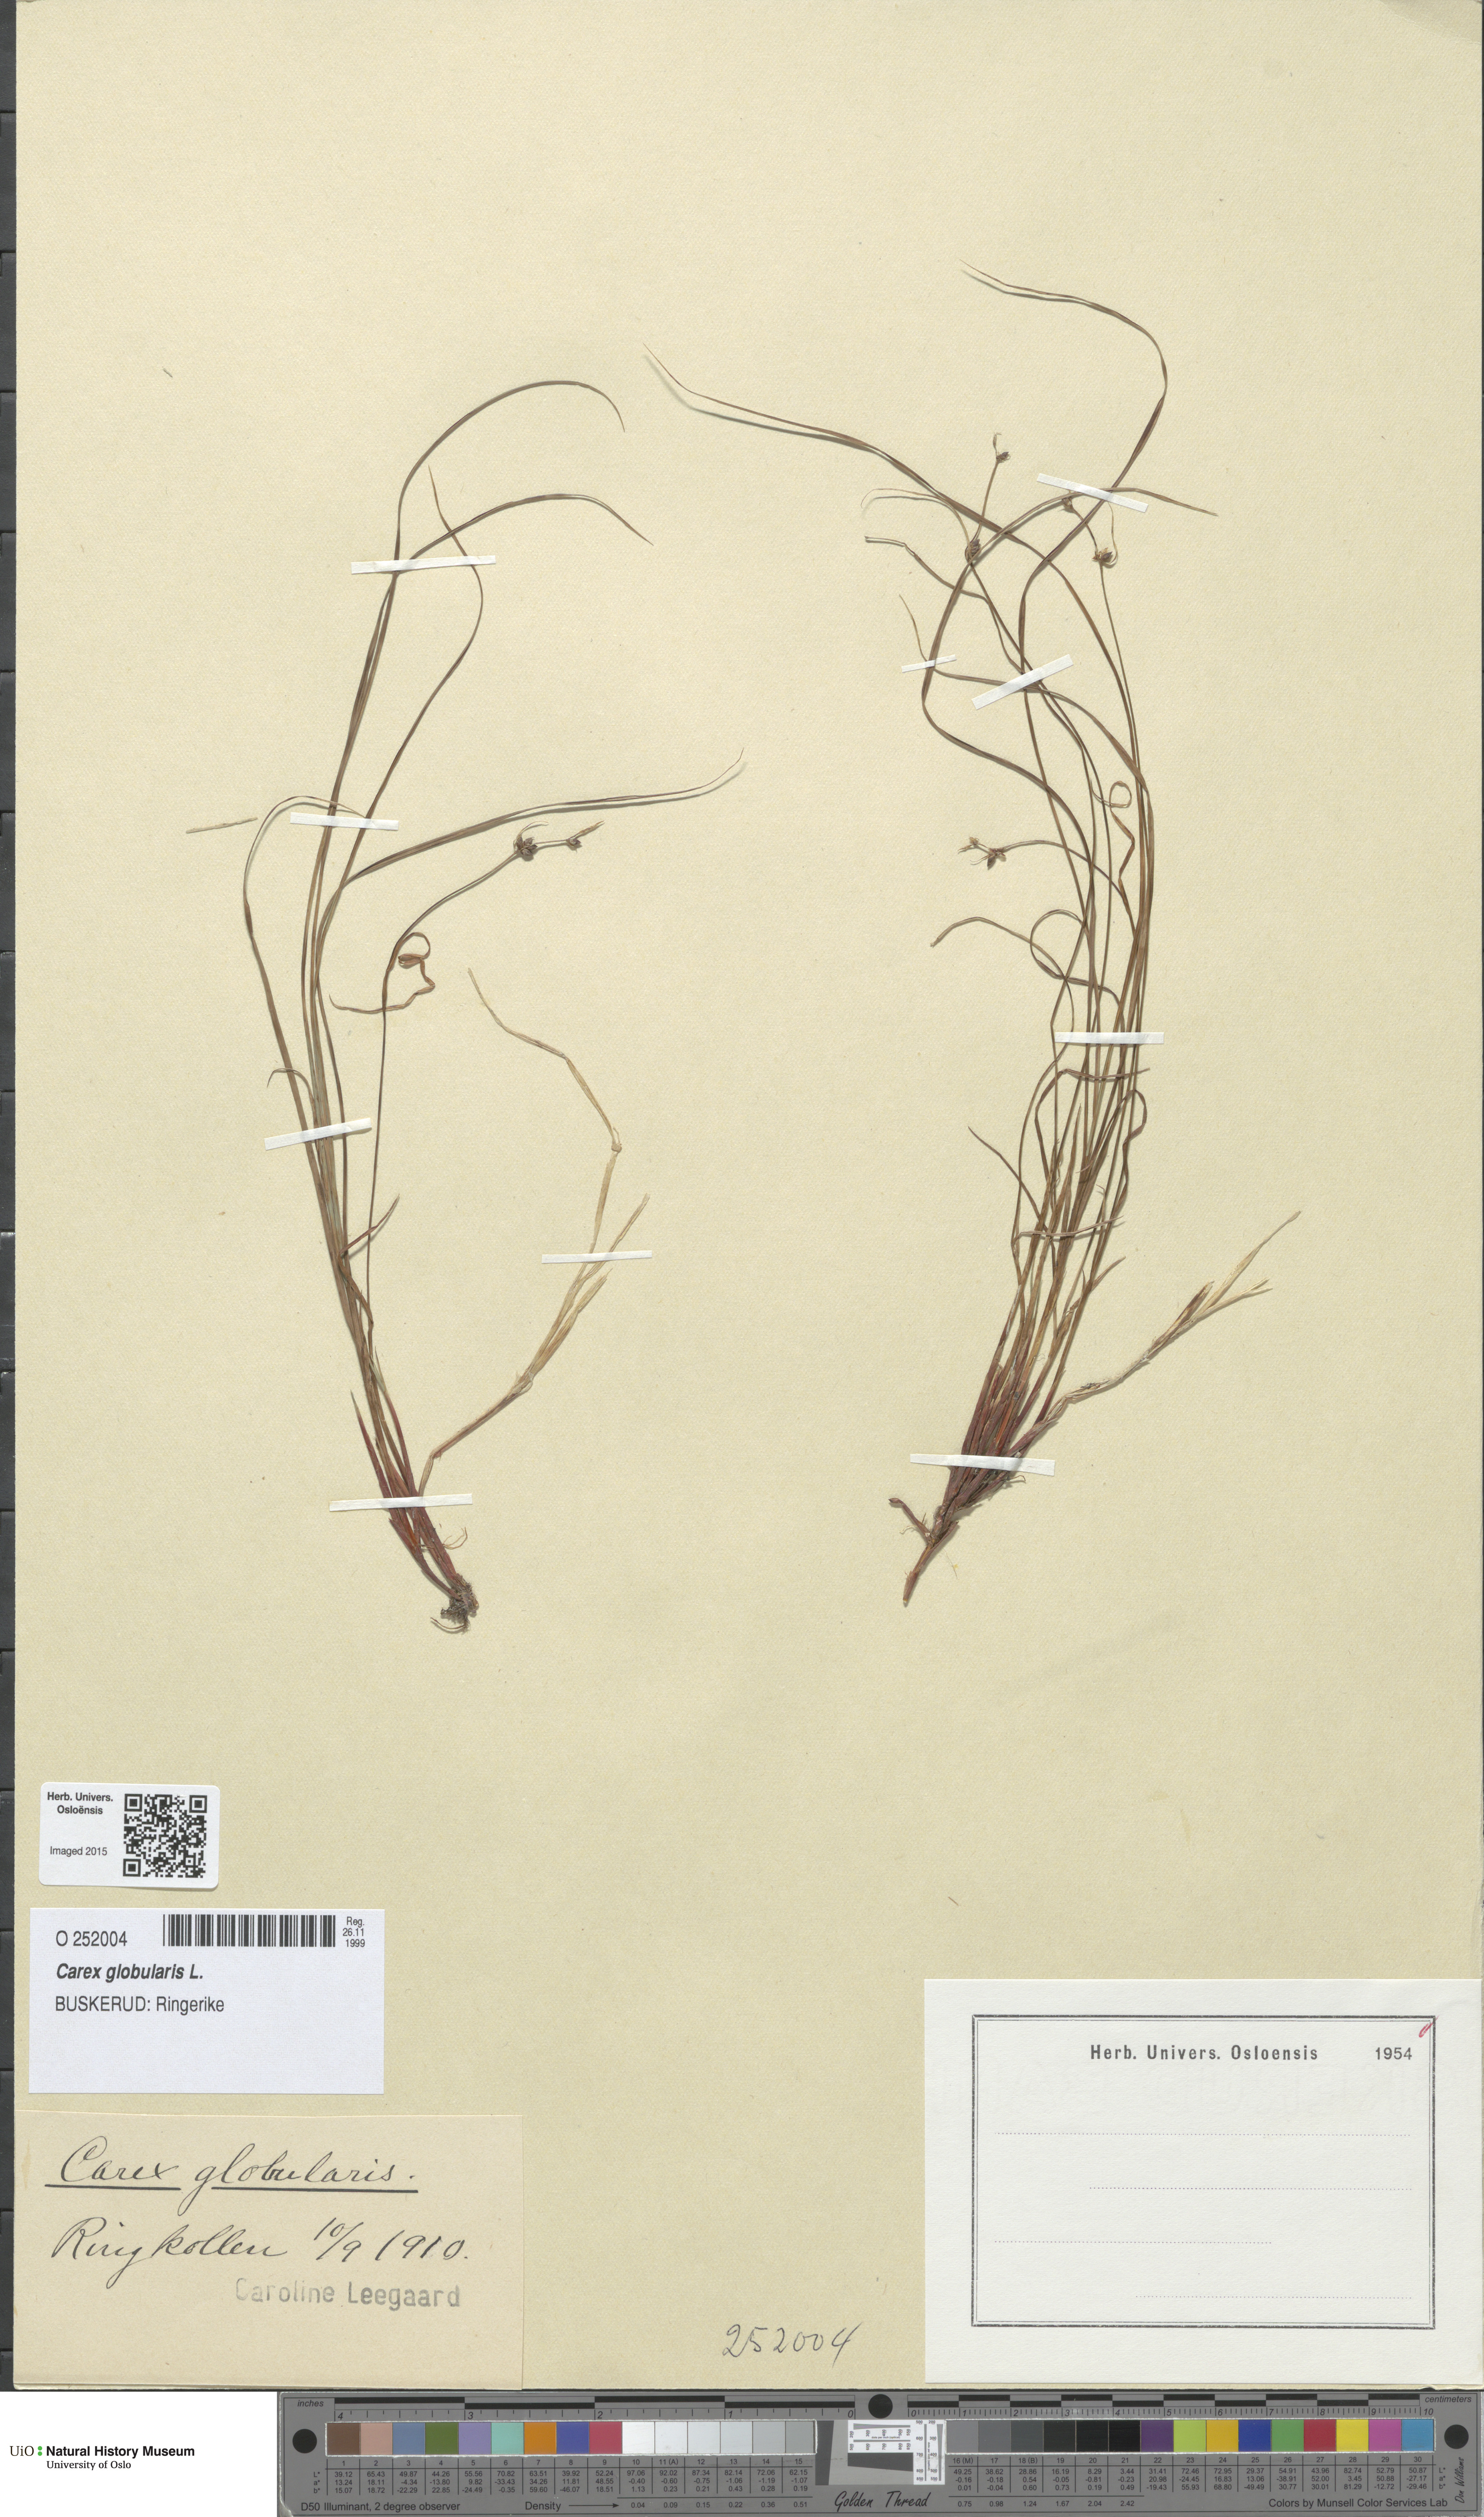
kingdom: Plantae
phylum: Tracheophyta
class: Liliopsida
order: Poales
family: Cyperaceae
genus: Carex
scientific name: Carex globularis
